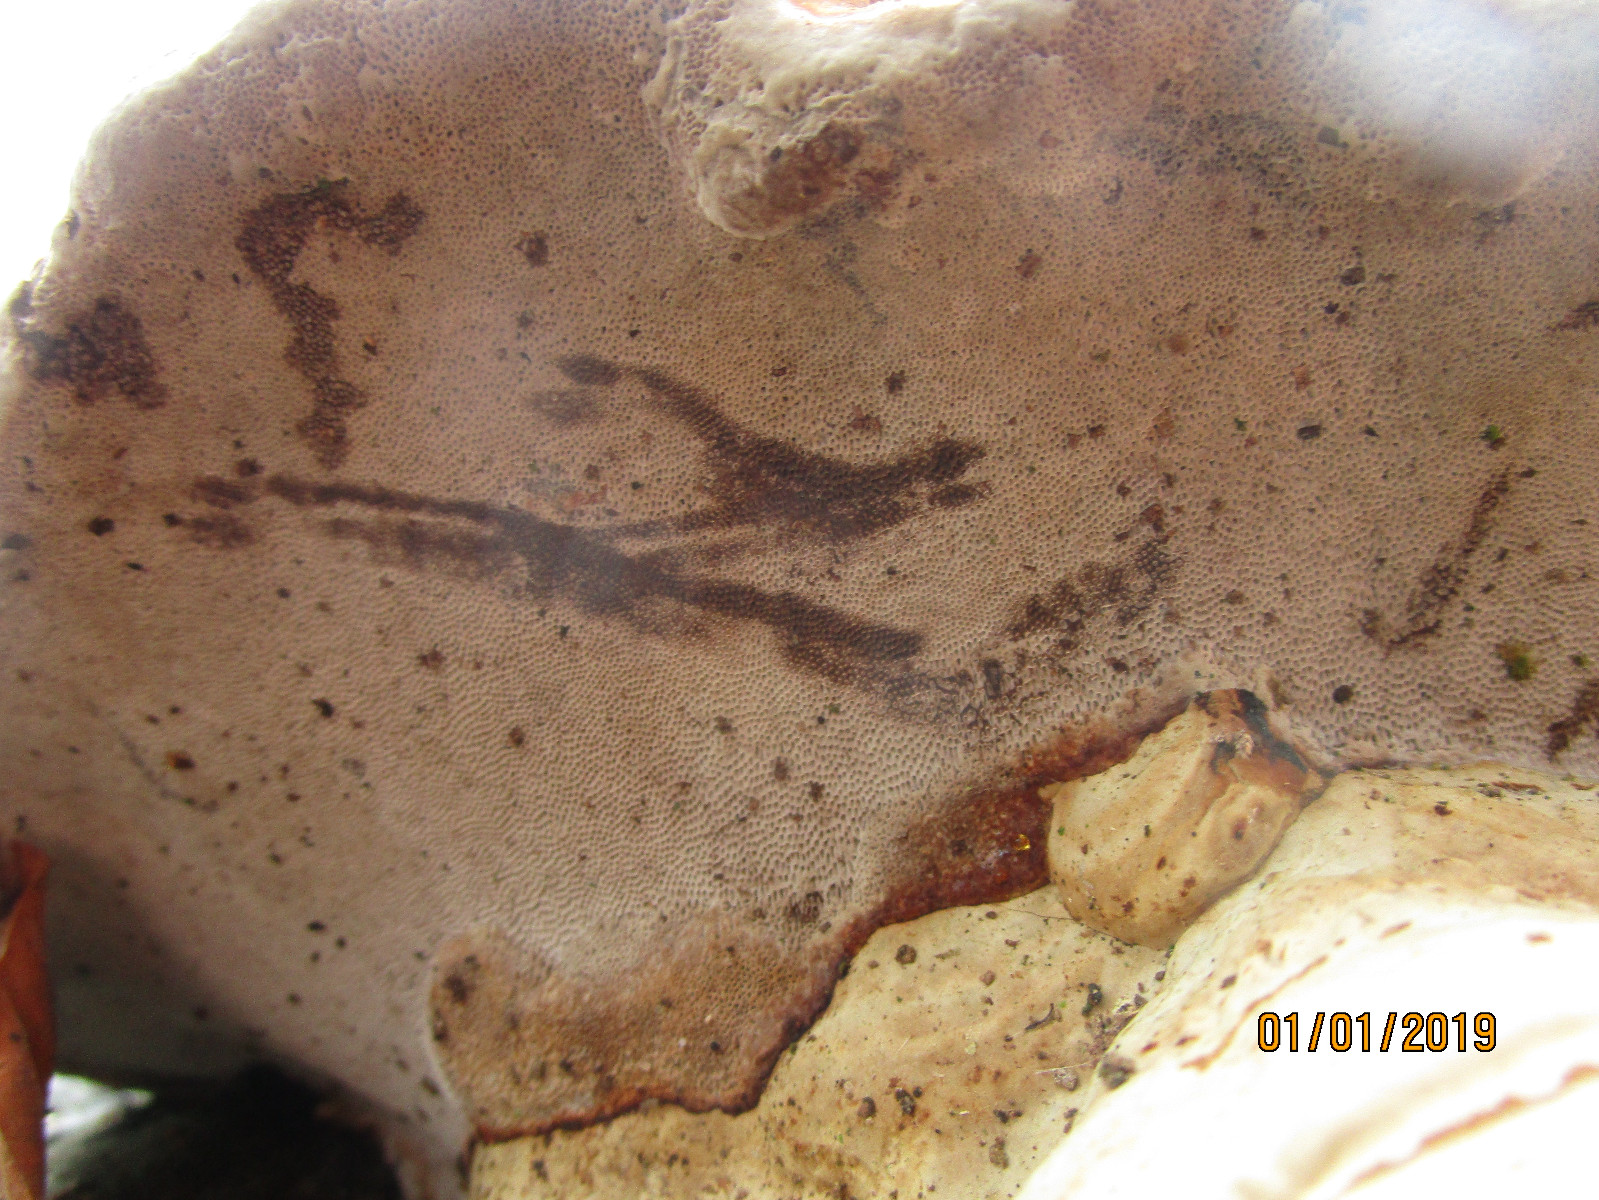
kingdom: Fungi
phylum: Basidiomycota
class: Agaricomycetes
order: Polyporales
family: Polyporaceae
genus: Fomes
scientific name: Fomes fomentarius
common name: tøndersvamp
